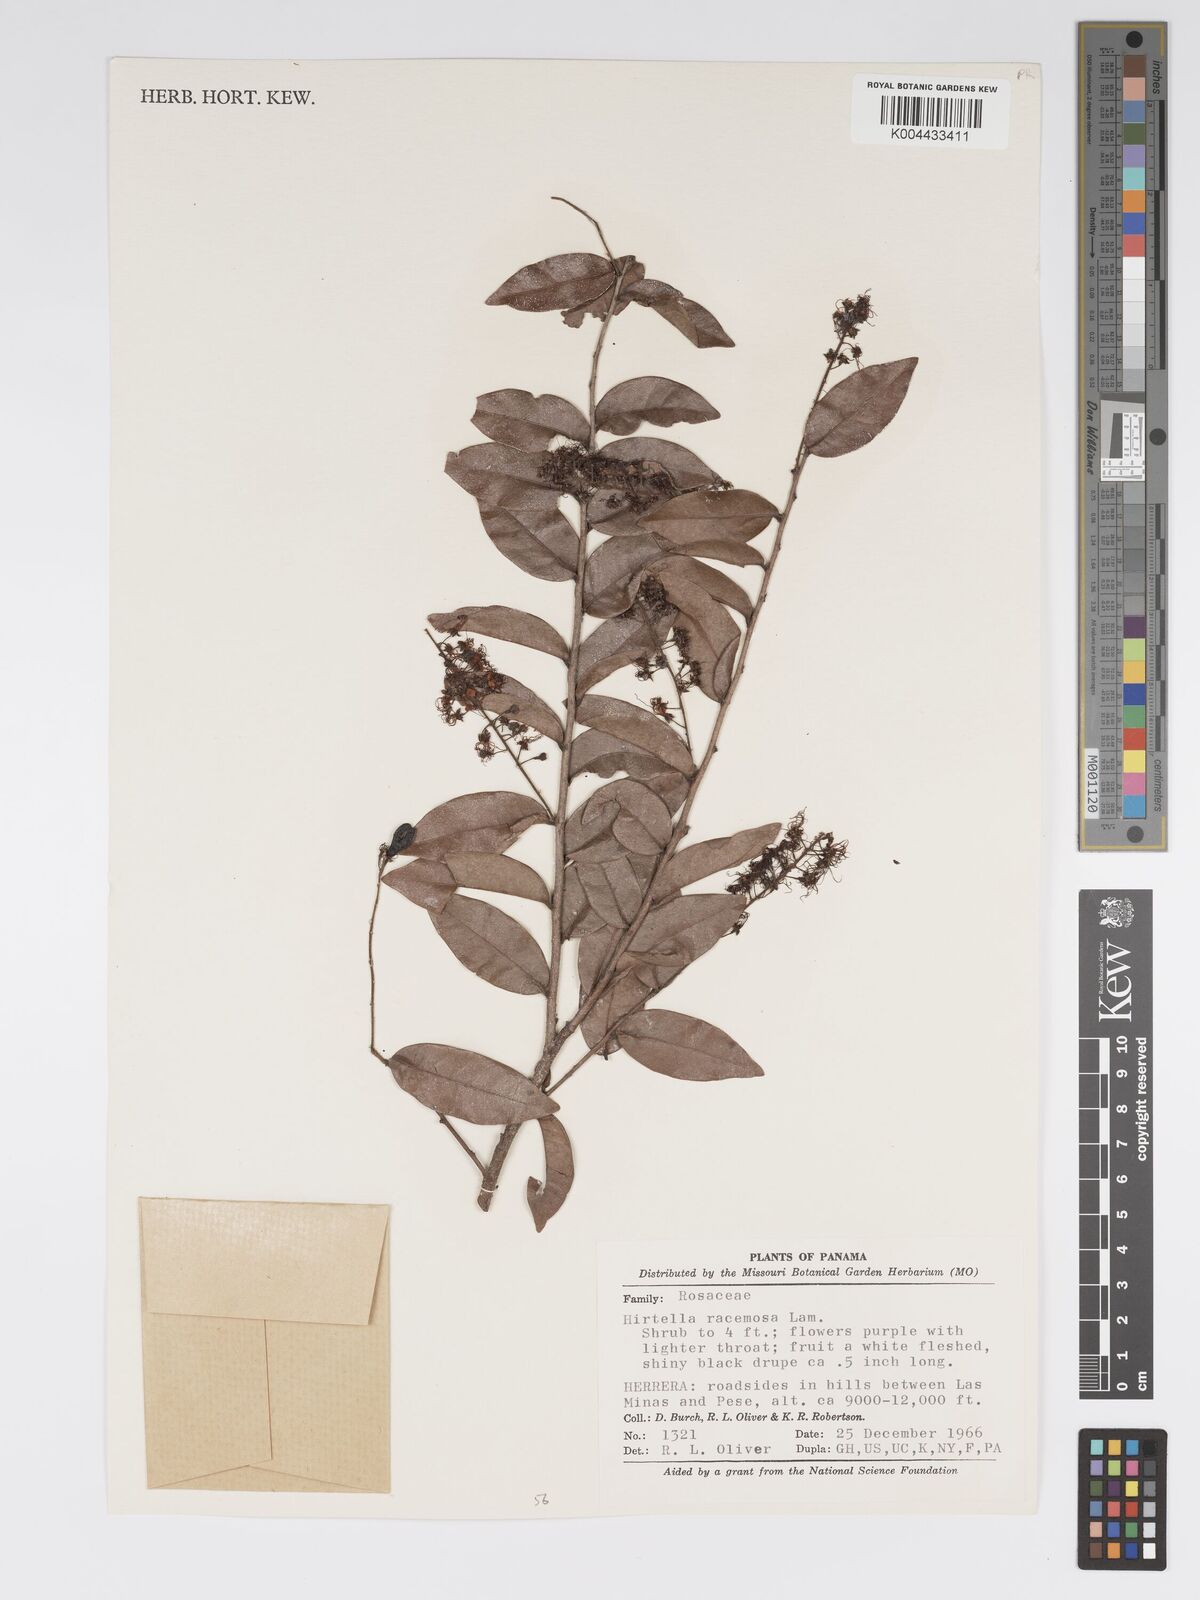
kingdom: Plantae
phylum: Tracheophyta
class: Magnoliopsida
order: Malpighiales
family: Chrysobalanaceae
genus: Hirtella
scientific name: Hirtella racemosa
